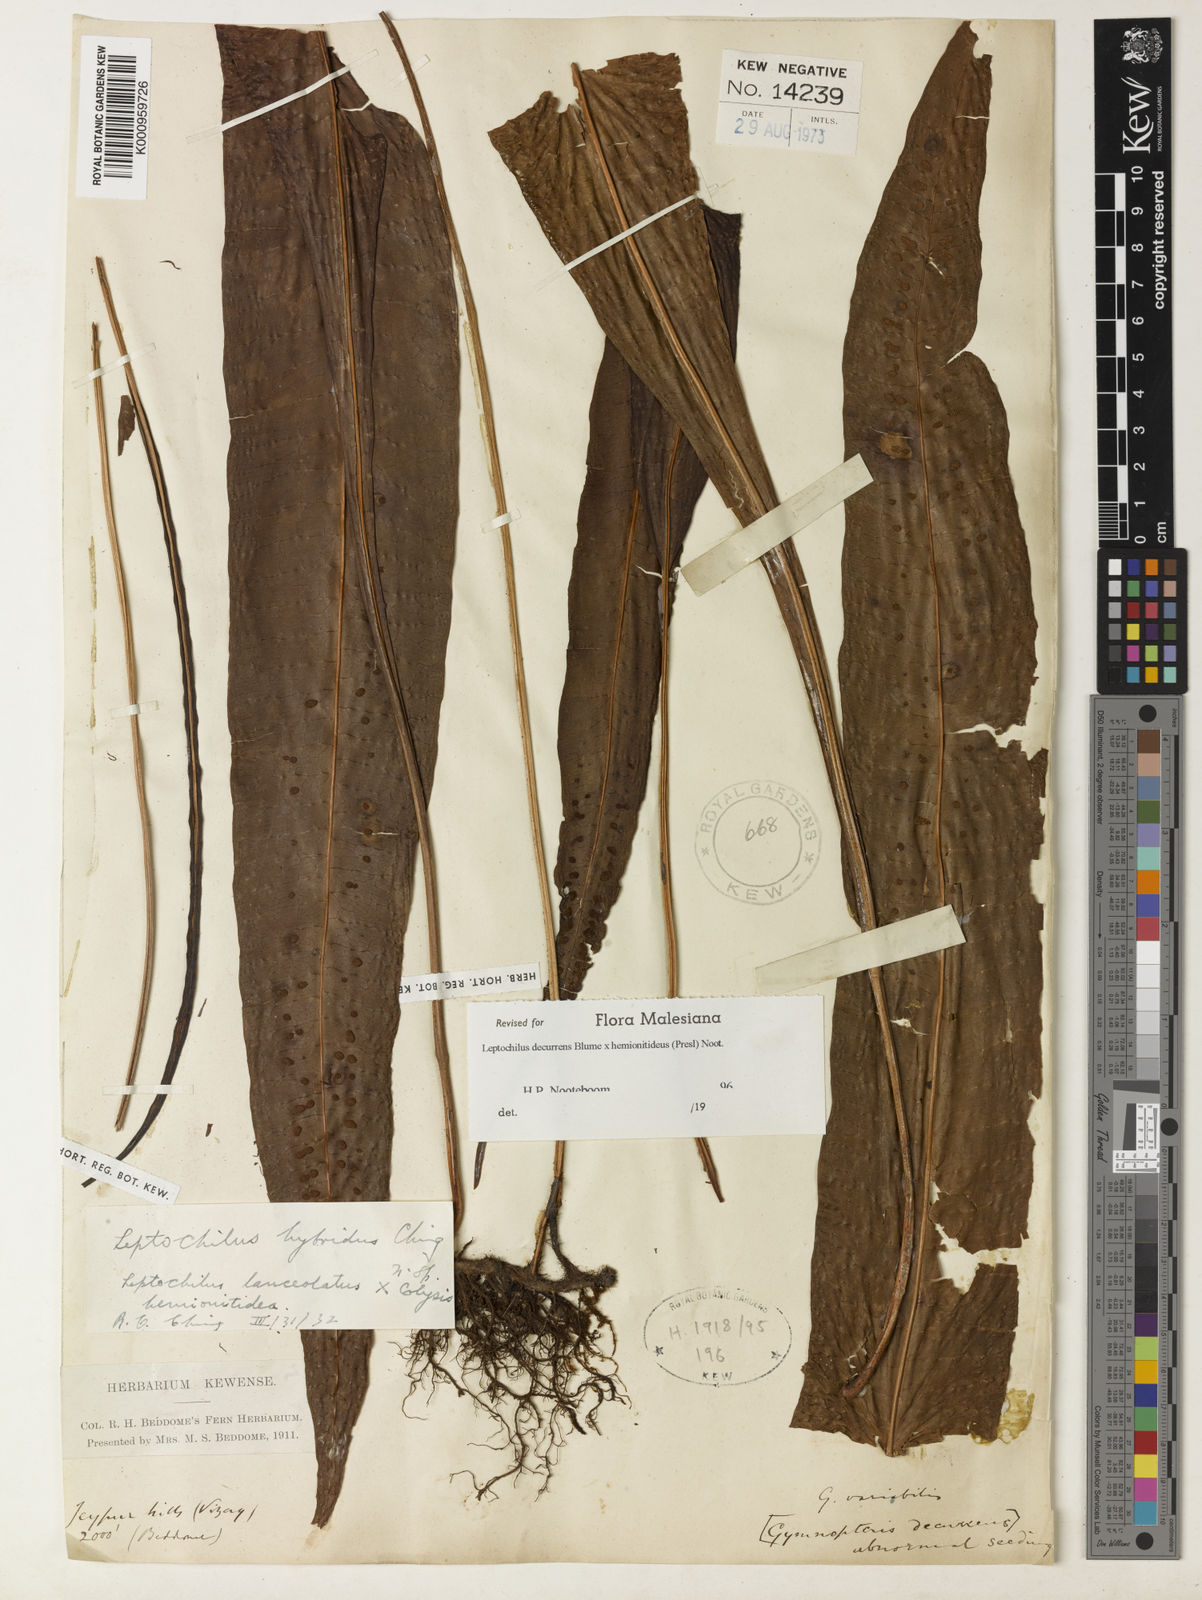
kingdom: Plantae
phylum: Tracheophyta
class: Polypodiopsida
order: Polypodiales
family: Polypodiaceae
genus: Leptochilus
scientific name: Leptochilus decurrens
